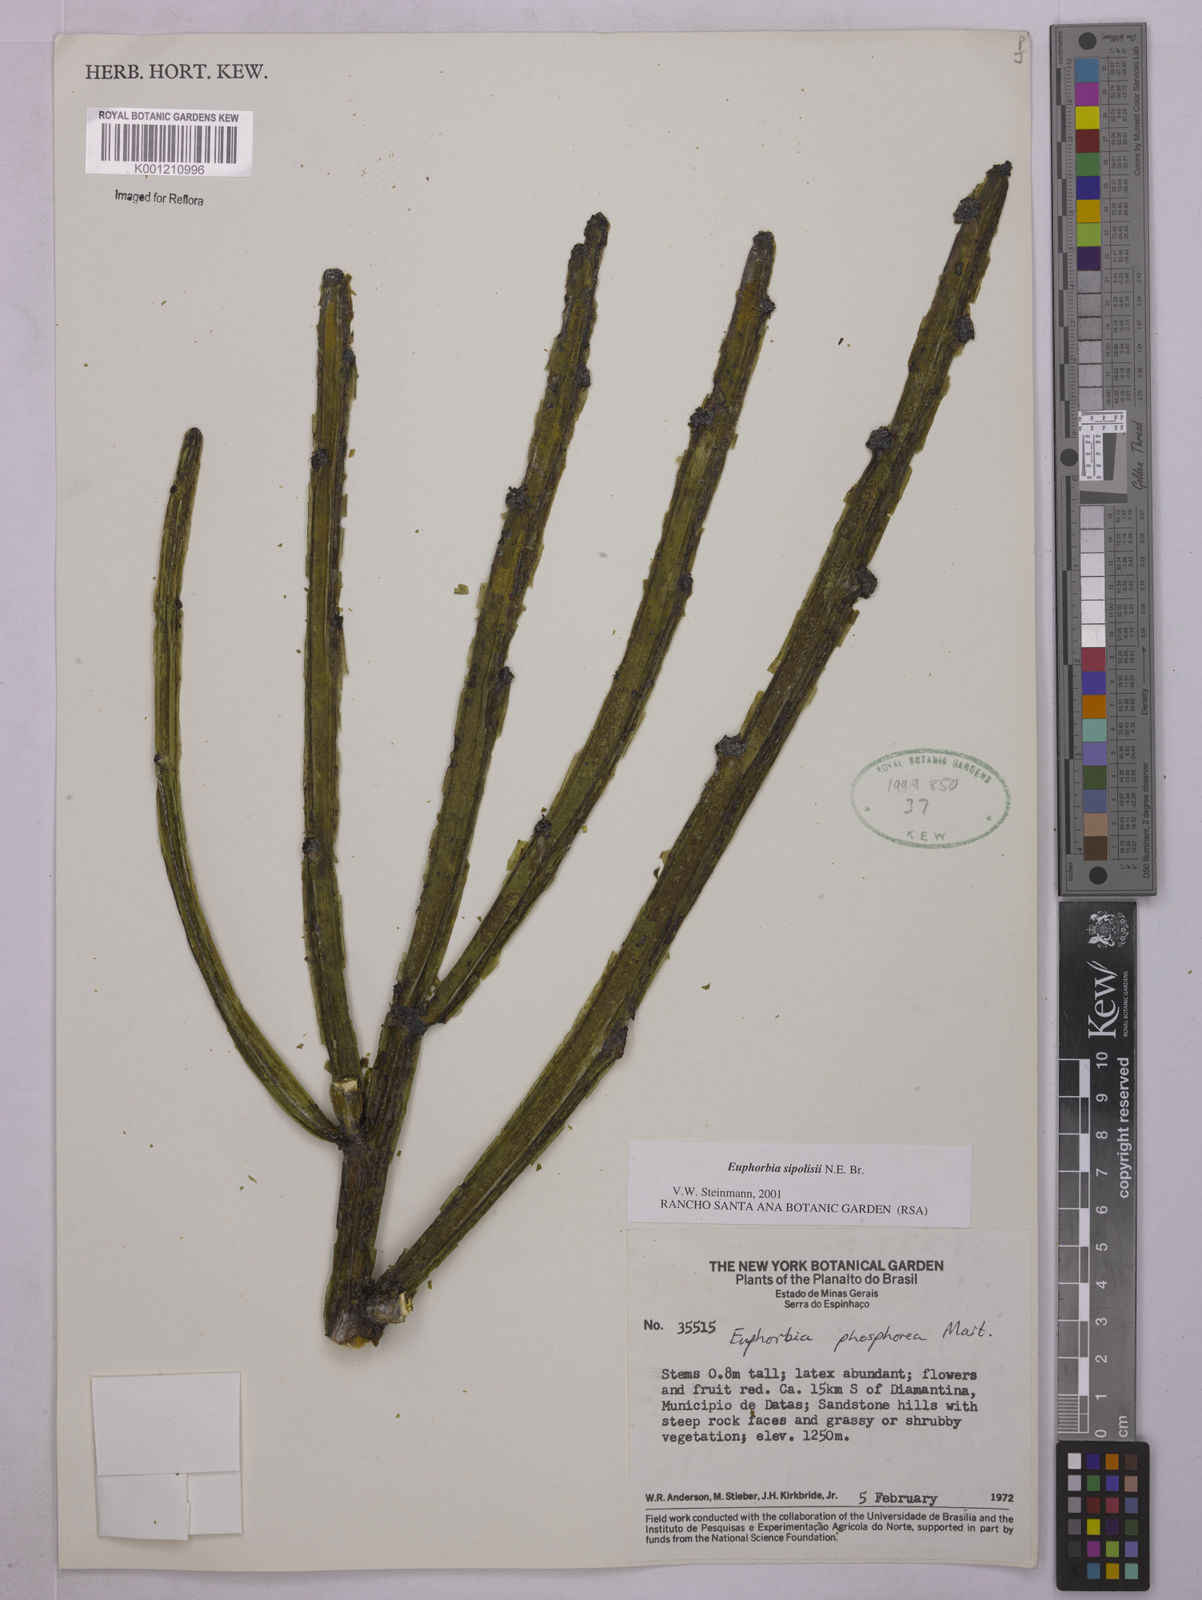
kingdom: Plantae
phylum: Tracheophyta
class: Magnoliopsida
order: Malpighiales
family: Euphorbiaceae
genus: Euphorbia
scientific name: Euphorbia sipolisii
